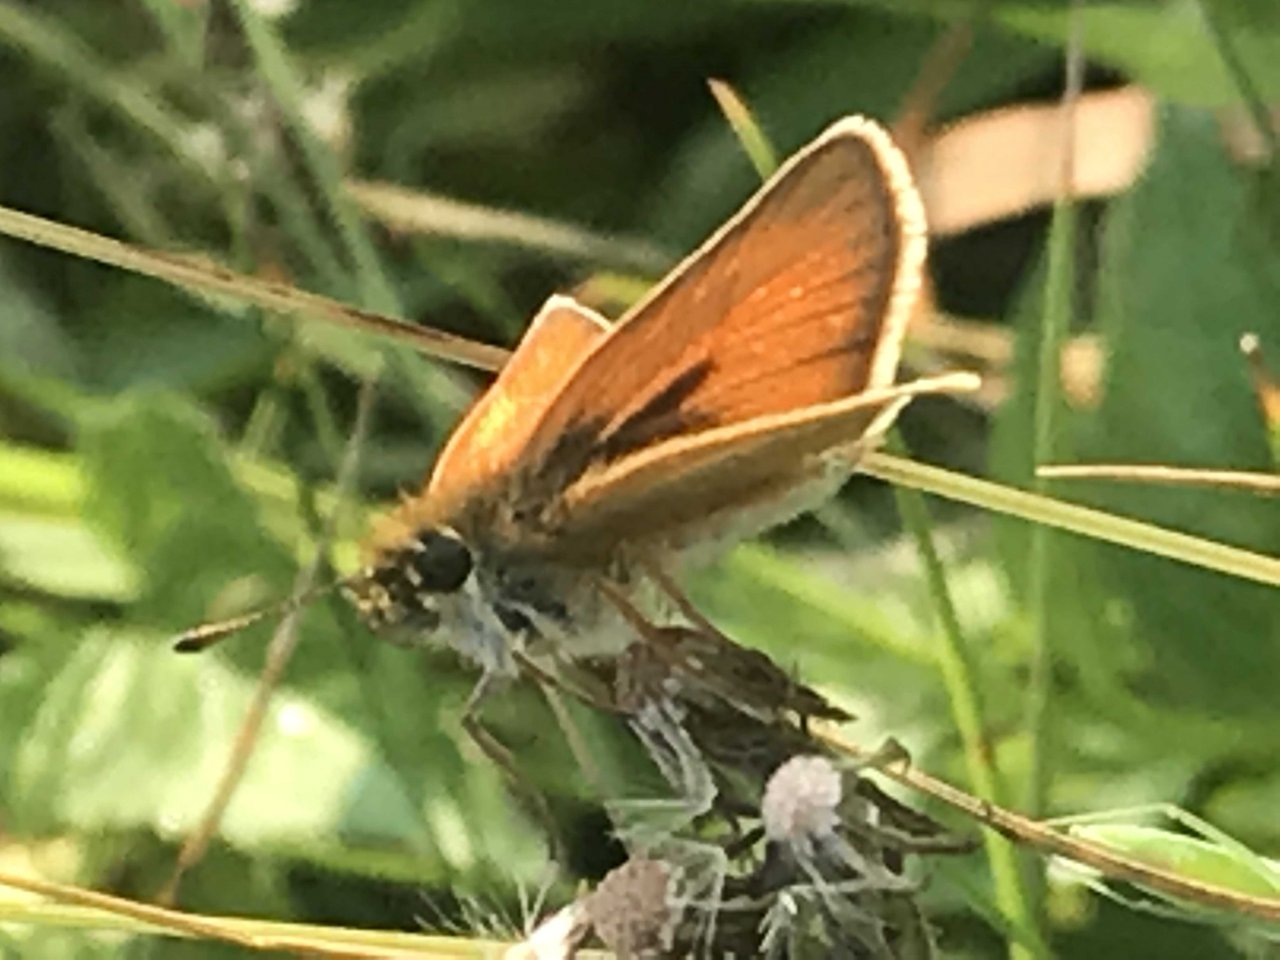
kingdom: Animalia
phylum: Arthropoda
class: Insecta
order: Lepidoptera
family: Hesperiidae
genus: Thymelicus
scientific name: Thymelicus lineola
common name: European Skipper
